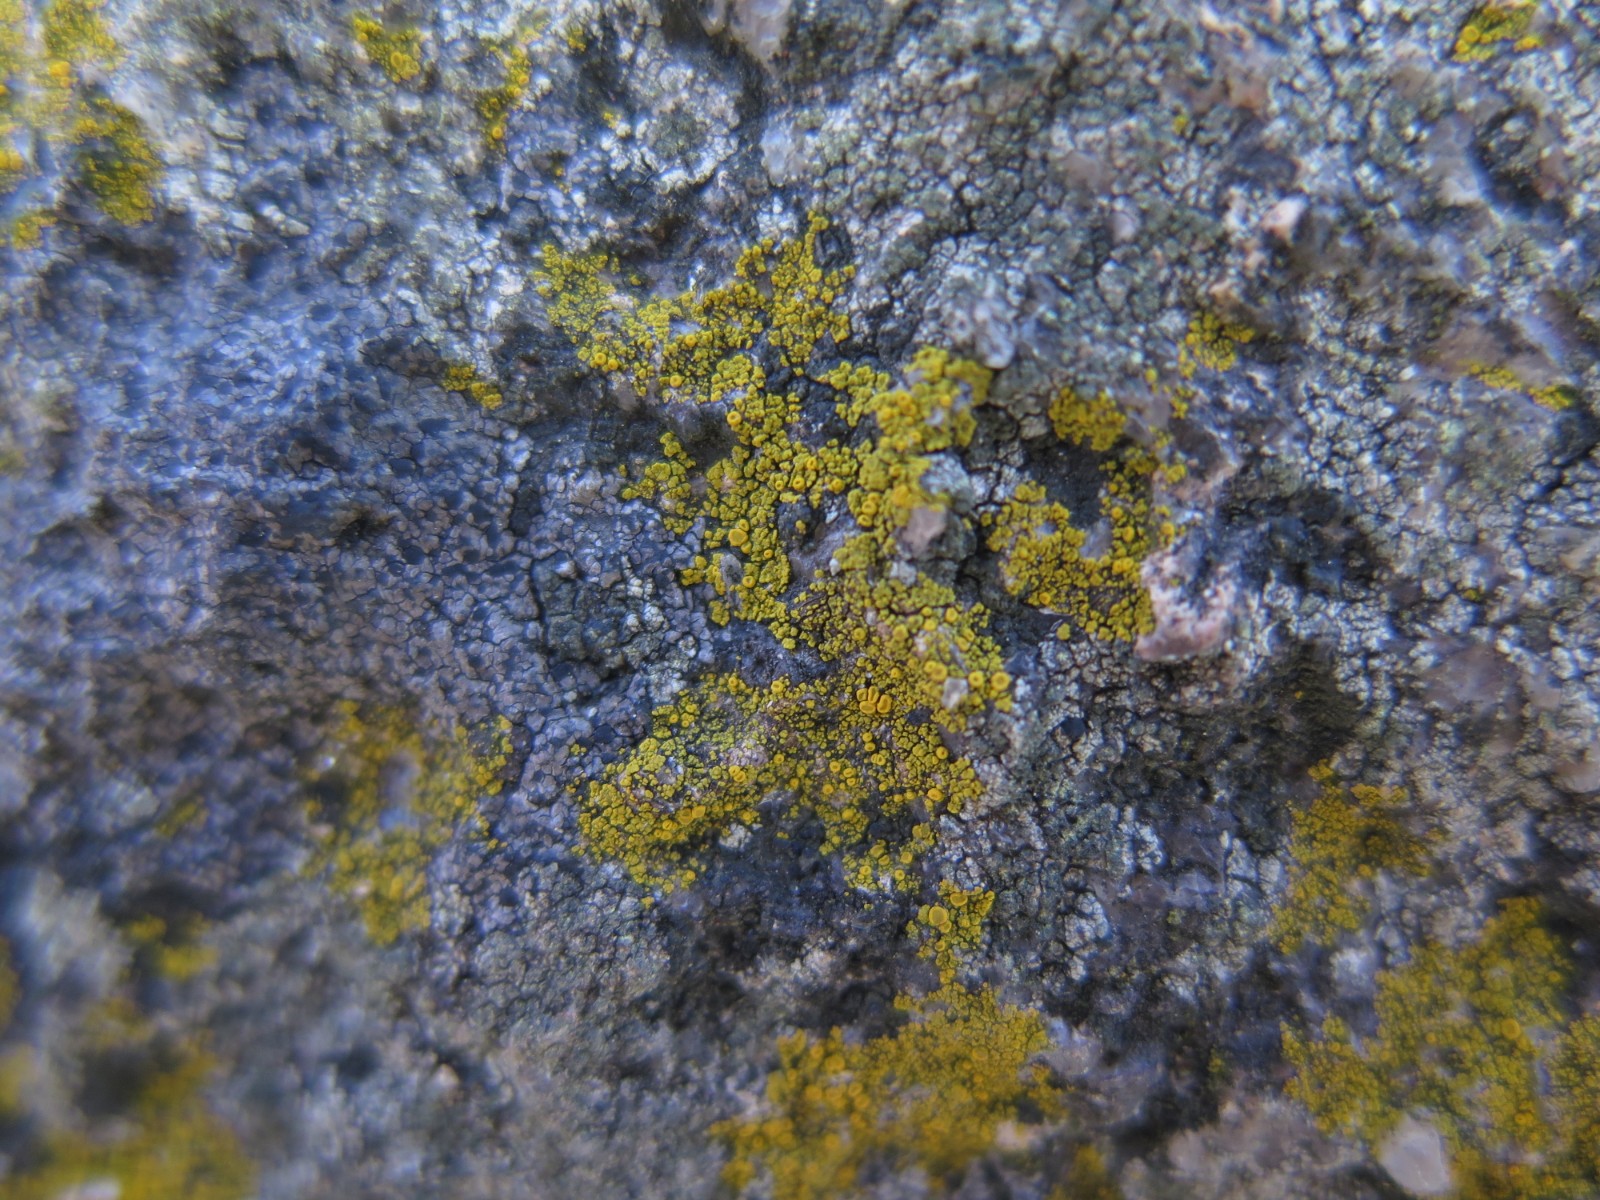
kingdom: Fungi
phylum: Ascomycota
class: Candelariomycetes
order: Candelariales
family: Candelariaceae
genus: Candelariella
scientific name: Candelariella vitellina
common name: almindelig æggeblommelav
